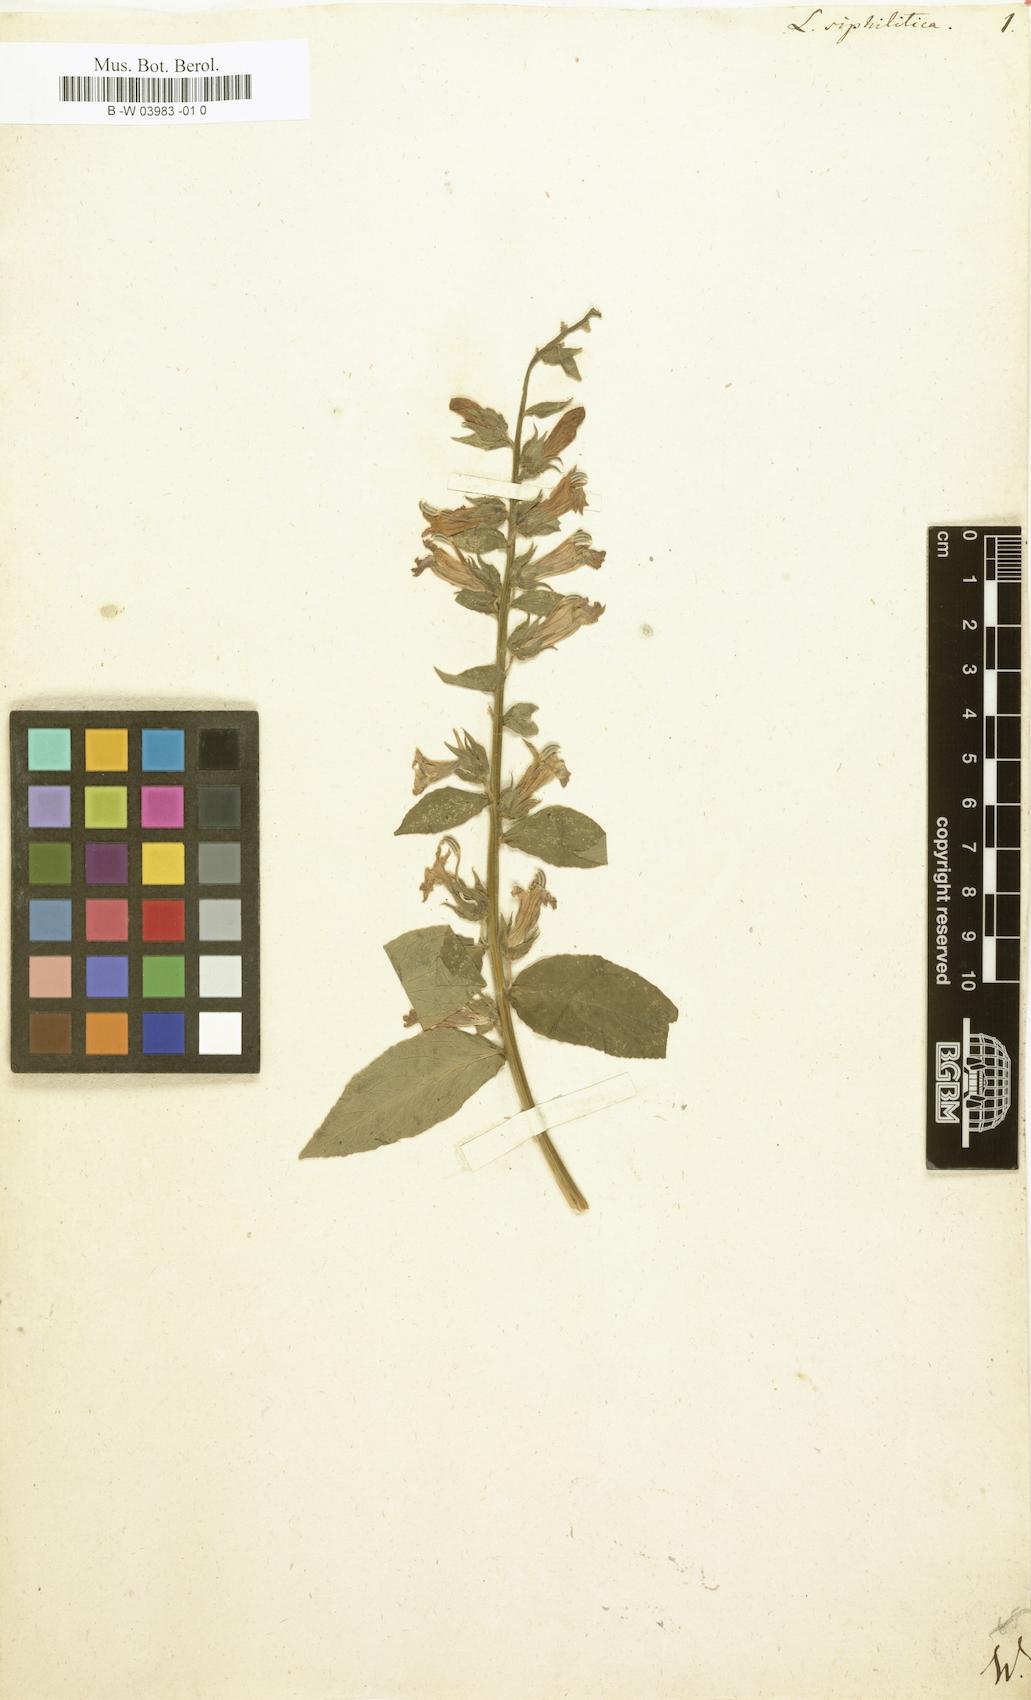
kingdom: Plantae
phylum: Tracheophyta
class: Magnoliopsida
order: Asterales
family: Campanulaceae
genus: Lobelia
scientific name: Lobelia siphilitica
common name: Great lobelia
